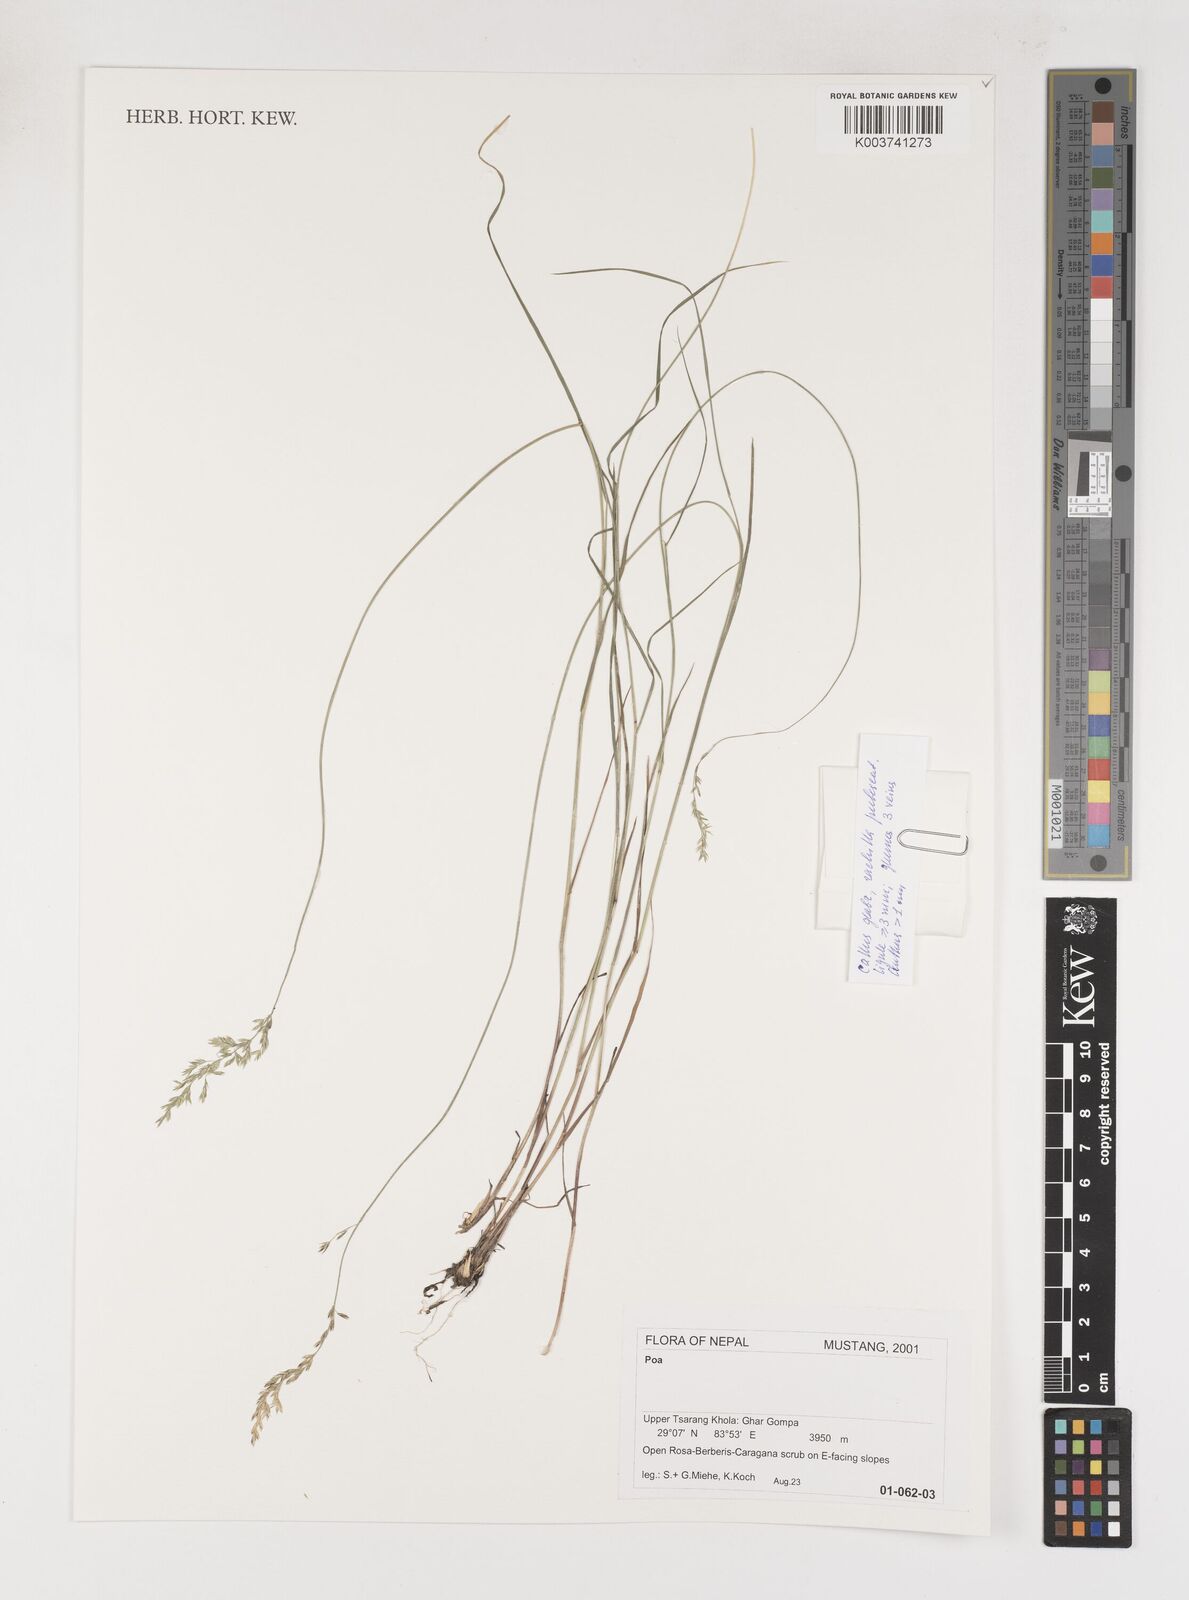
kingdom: Plantae
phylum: Tracheophyta
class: Liliopsida
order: Poales
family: Poaceae
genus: Poa
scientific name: Poa
